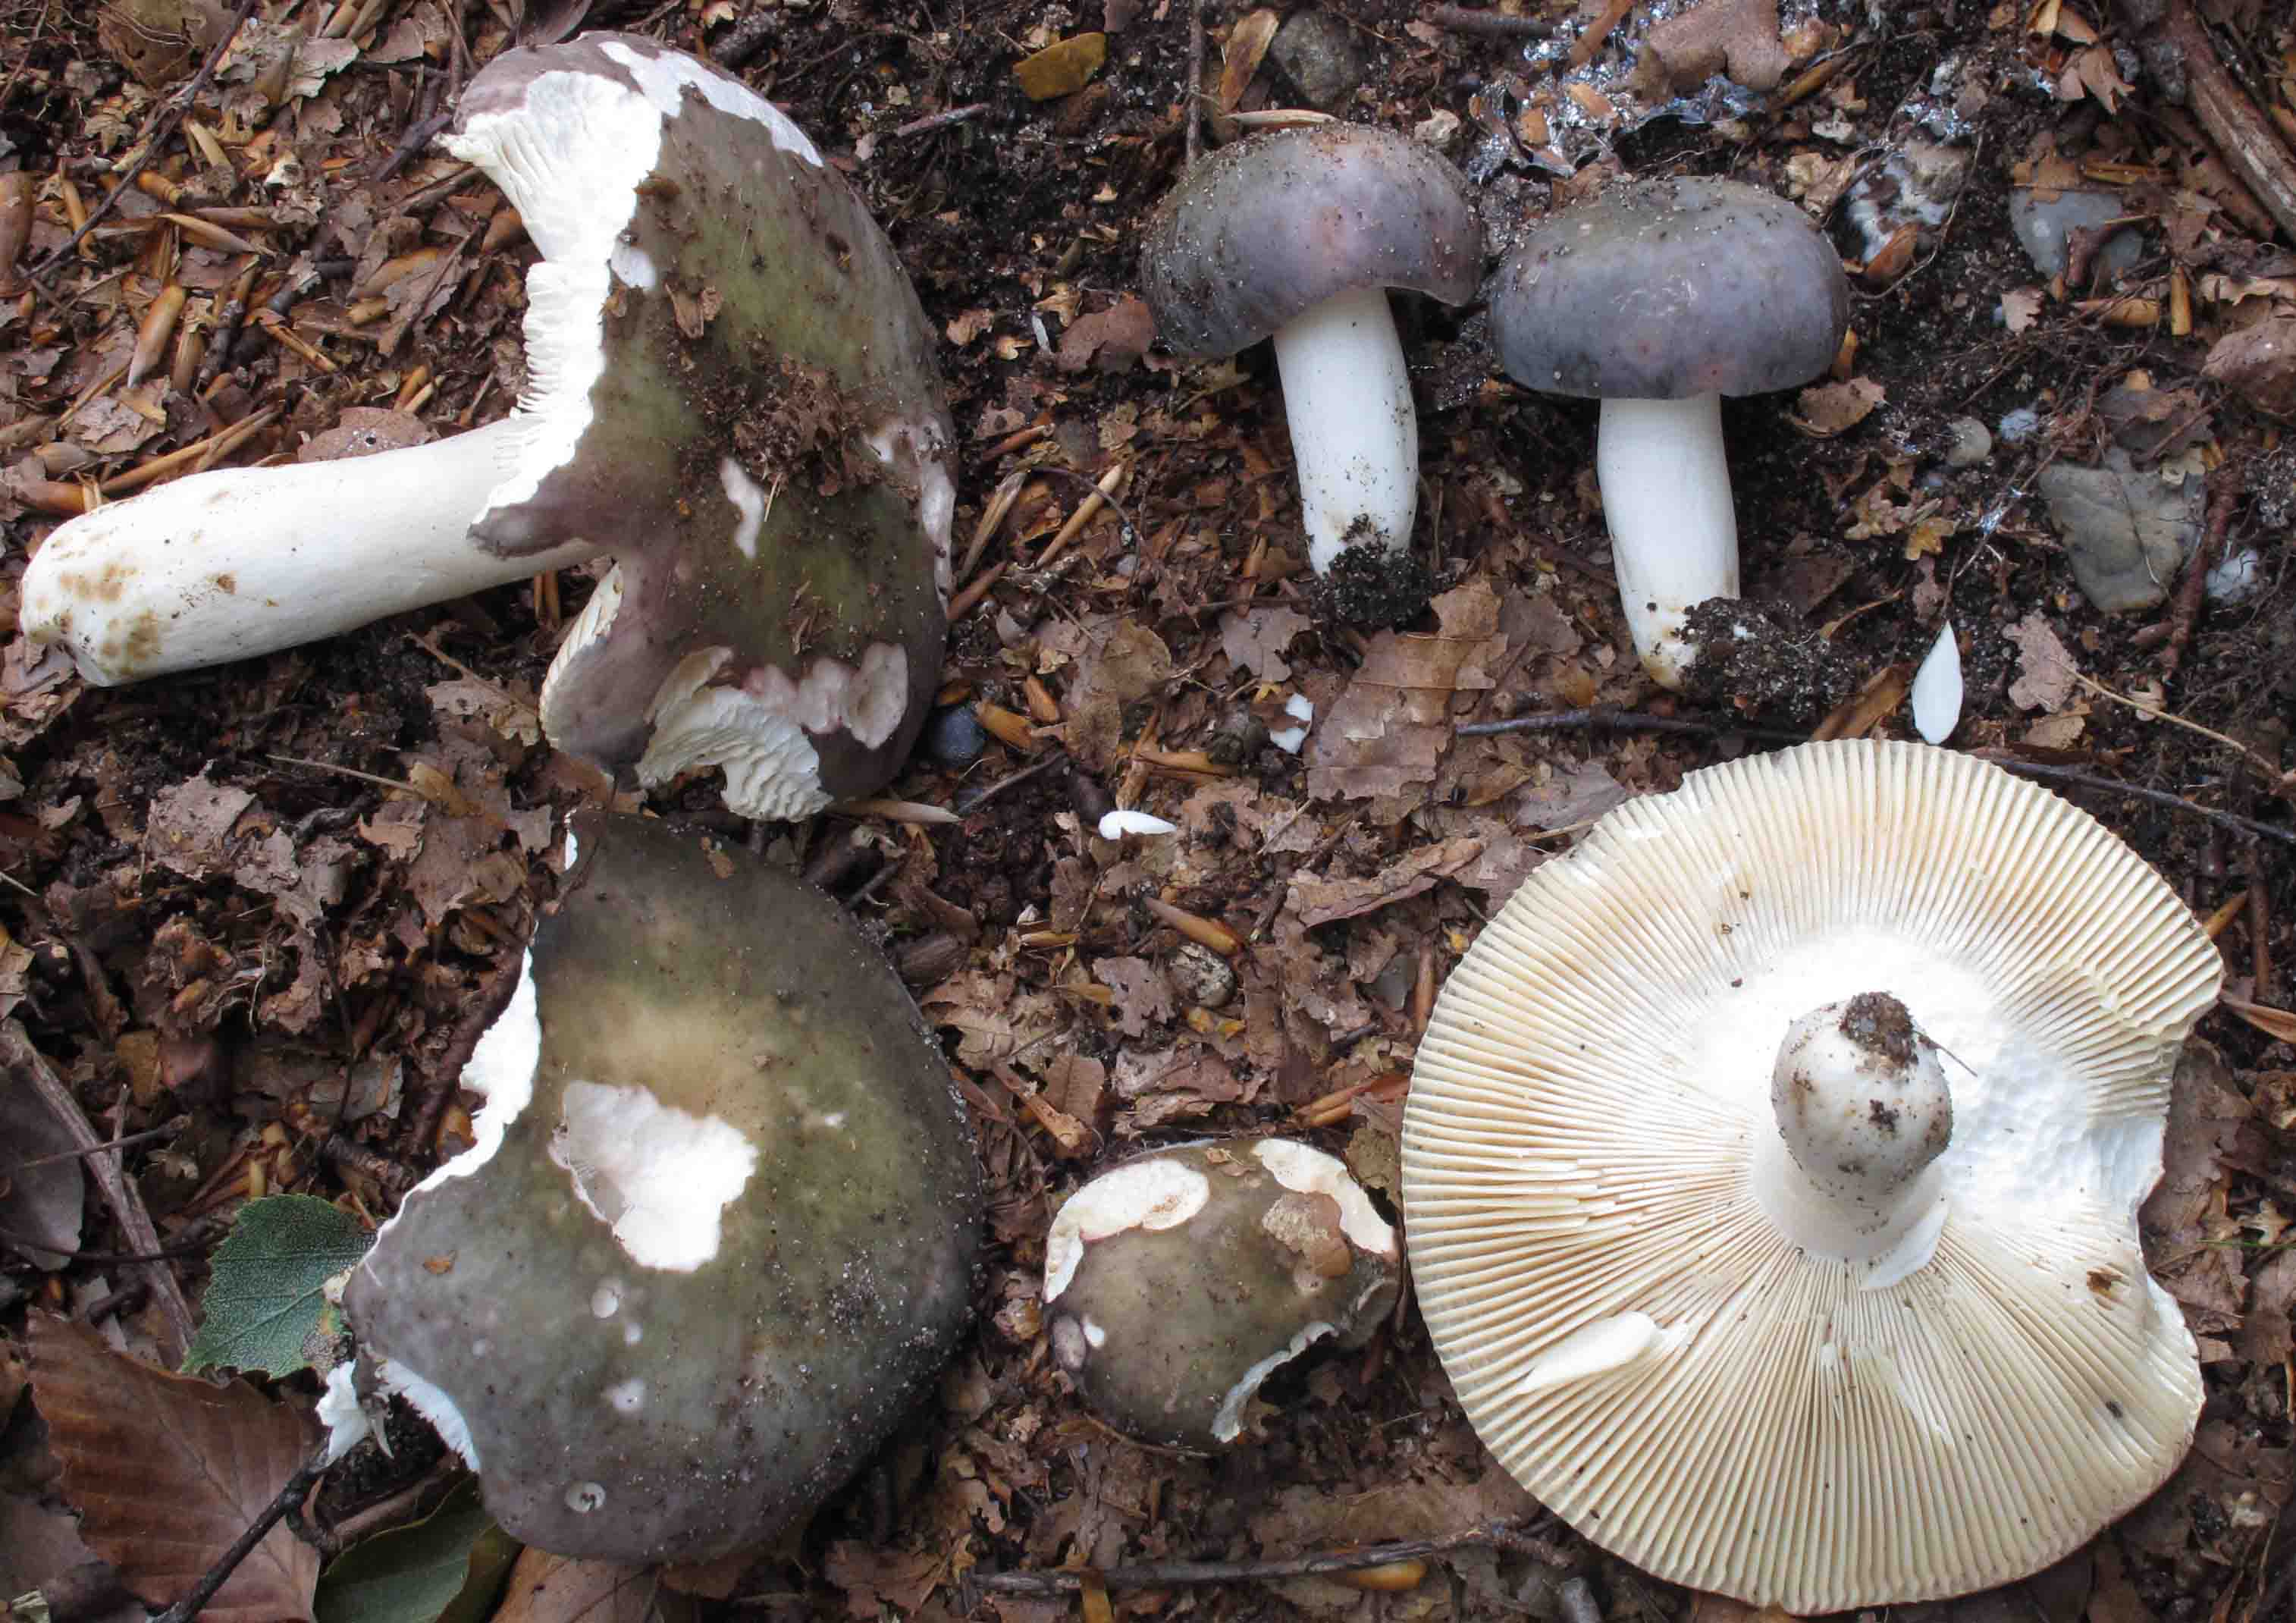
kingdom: Fungi
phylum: Basidiomycota
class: Agaricomycetes
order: Russulales
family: Russulaceae
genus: Russula
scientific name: Russula ionochlora
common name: violetgrøn skørhat
